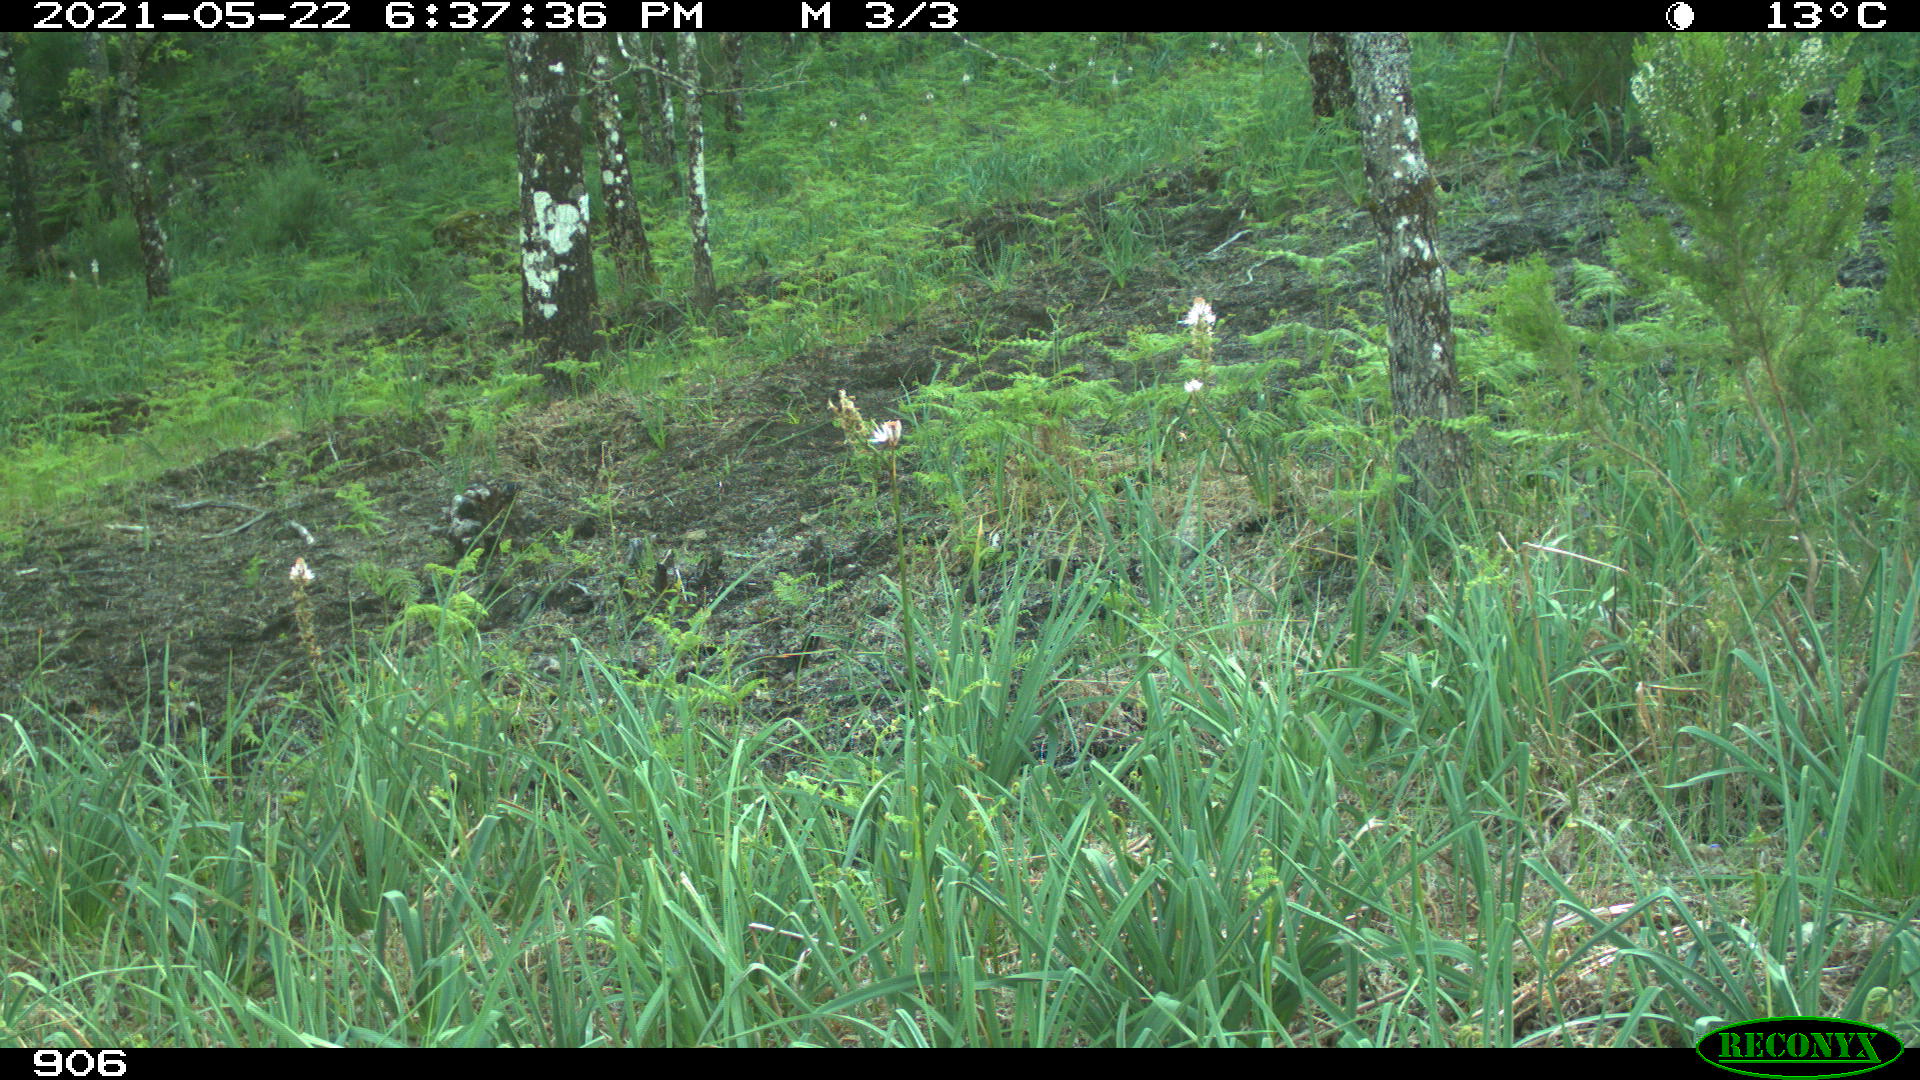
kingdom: Animalia
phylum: Chordata
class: Mammalia
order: Perissodactyla
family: Equidae
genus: Equus
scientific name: Equus caballus
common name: Horse
